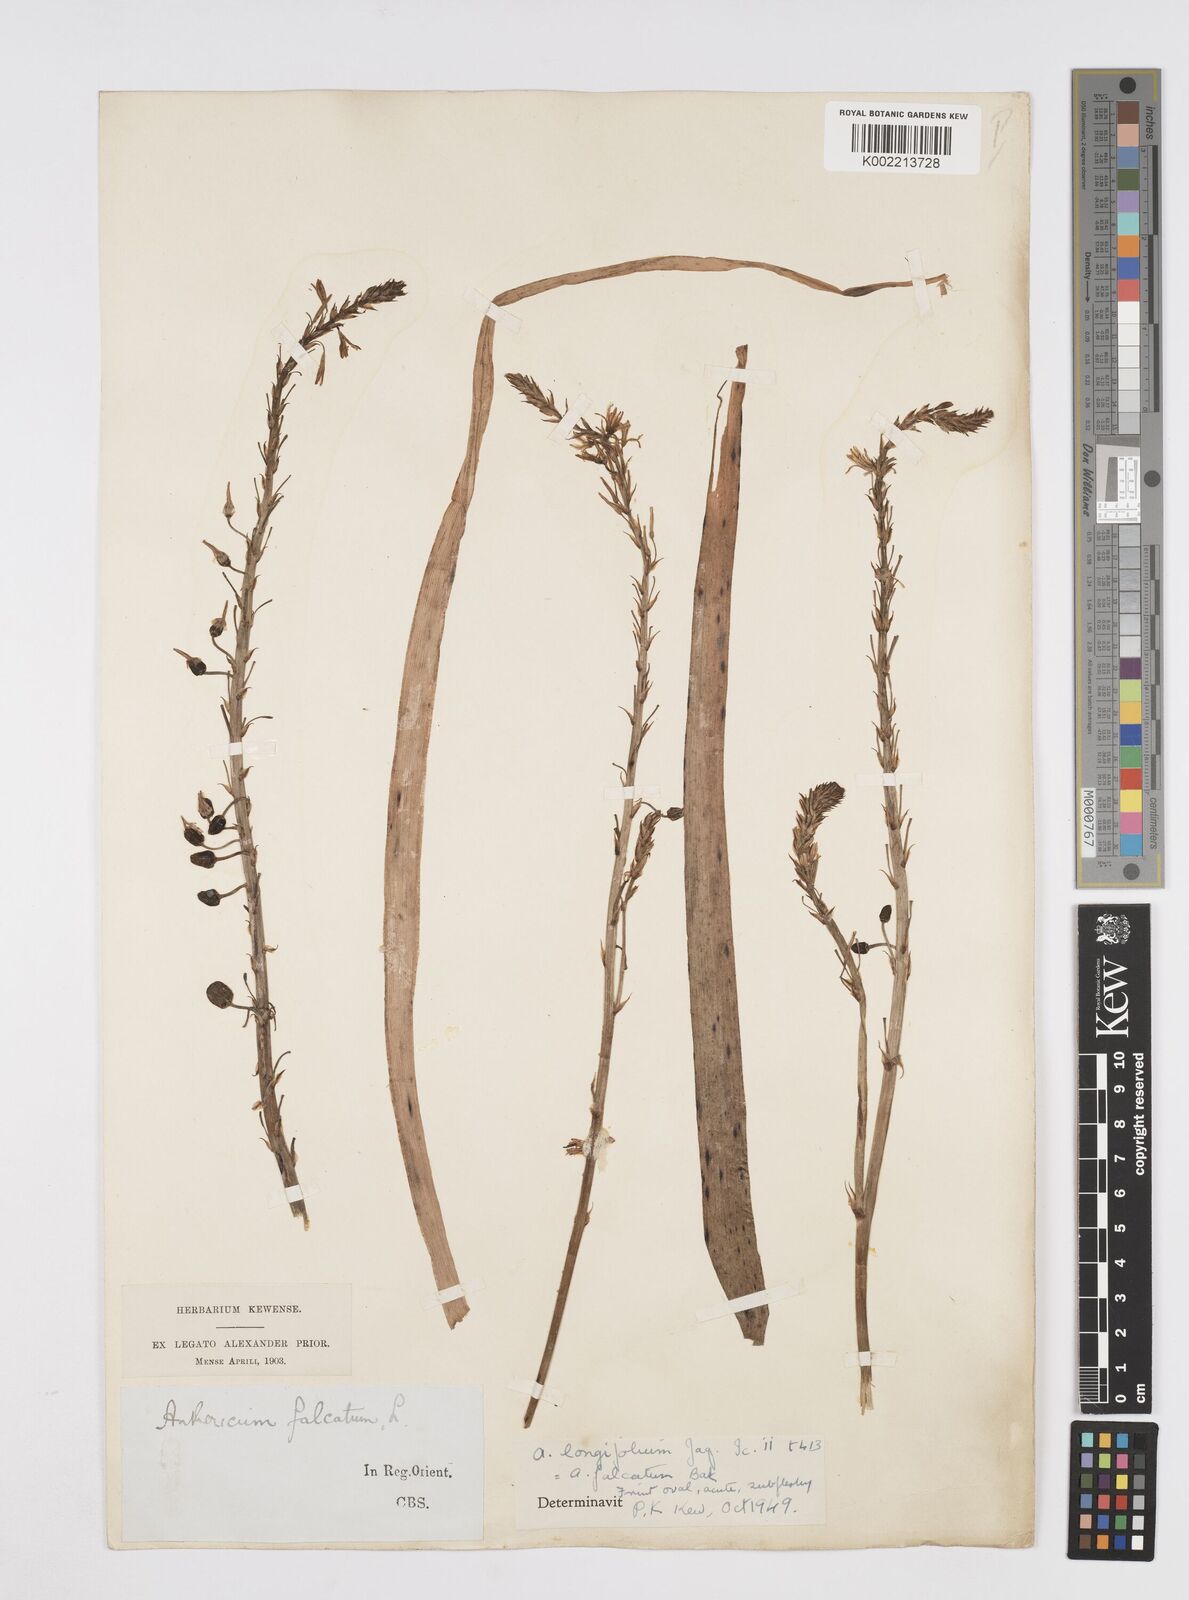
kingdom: Plantae
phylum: Tracheophyta
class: Liliopsida
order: Asparagales
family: Asphodelaceae
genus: Trachyandra
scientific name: Trachyandra ciliata
